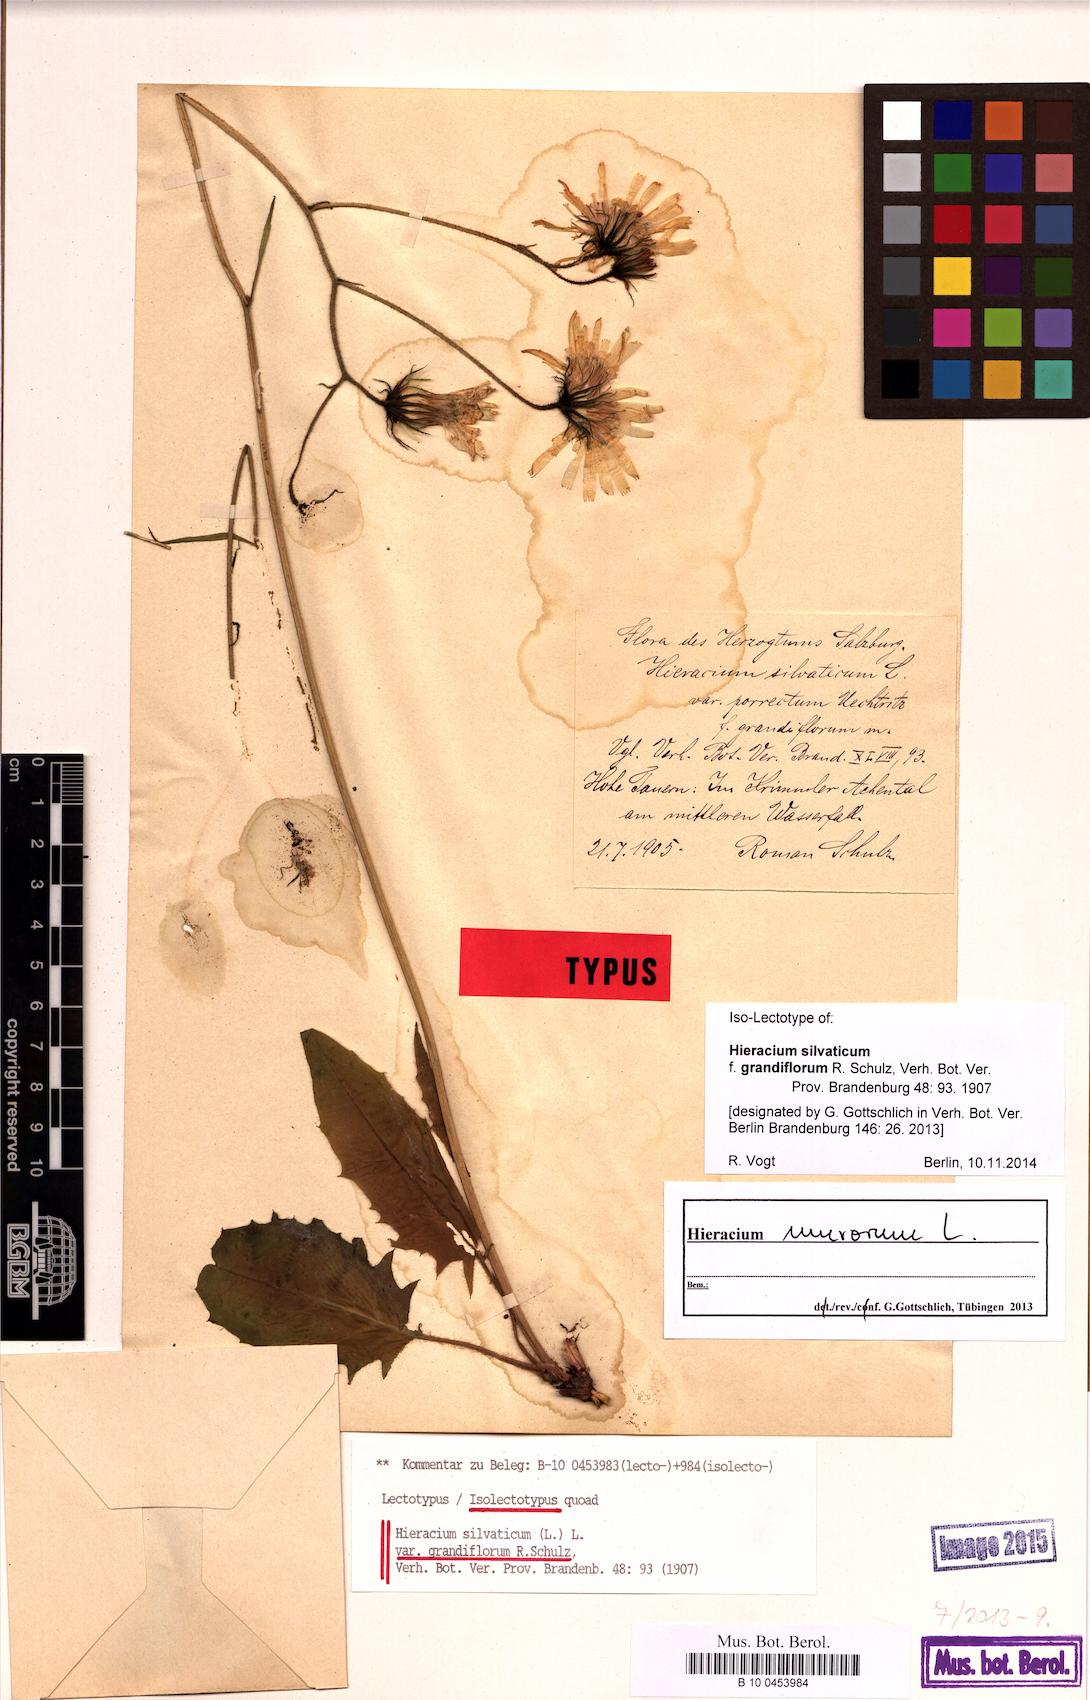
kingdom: Plantae
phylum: Tracheophyta
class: Magnoliopsida
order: Asterales
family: Asteraceae
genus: Hieracium
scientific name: Hieracium murorum
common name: Wall hawkweed
